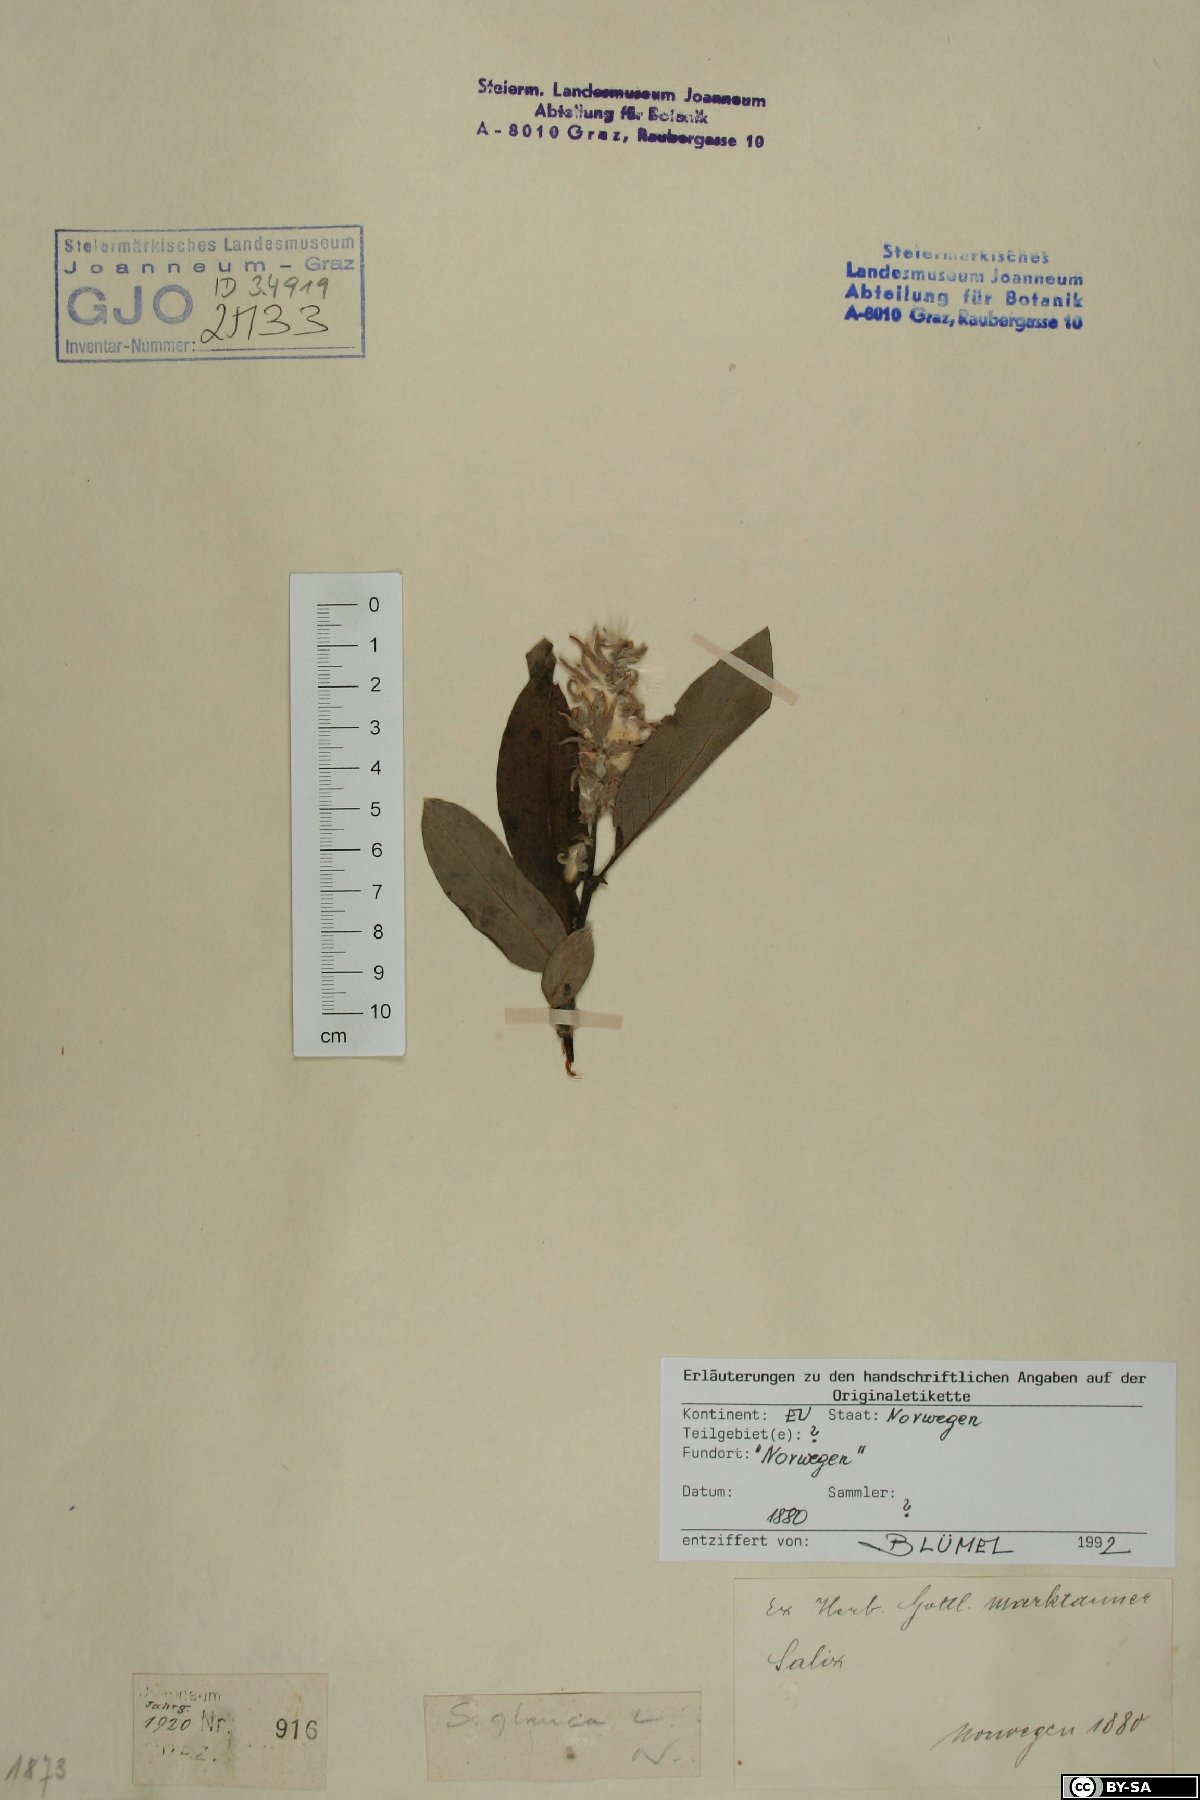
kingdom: Plantae
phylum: Tracheophyta
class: Magnoliopsida
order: Malpighiales
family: Salicaceae
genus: Salix
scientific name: Salix glauca
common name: Glaucous willow
